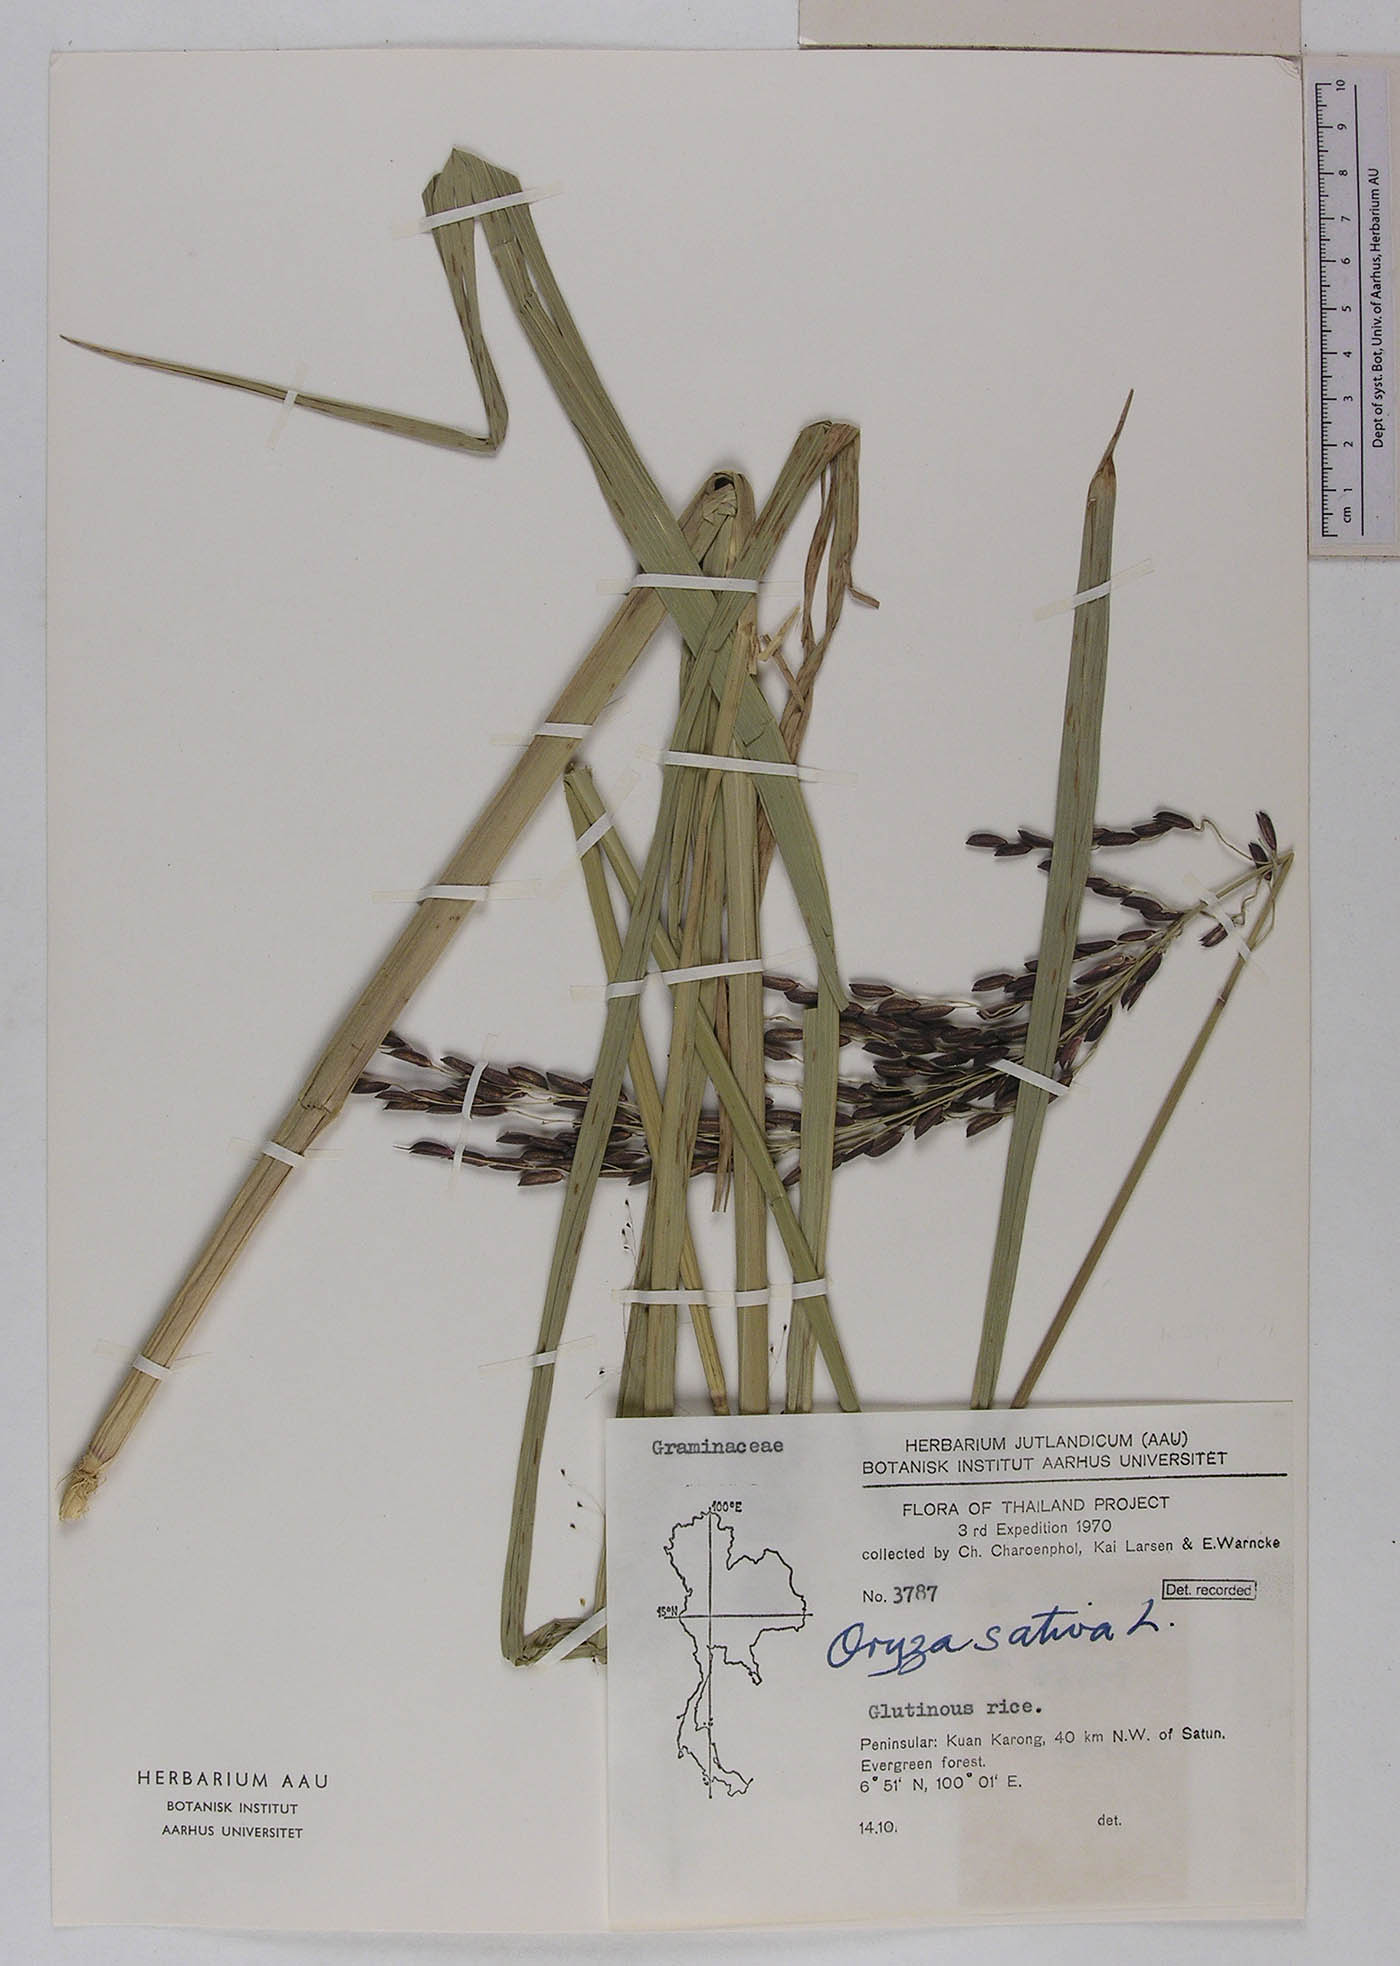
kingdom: Plantae
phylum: Tracheophyta
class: Liliopsida
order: Poales
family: Poaceae
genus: Oryza
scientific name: Oryza sativa
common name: Rice
